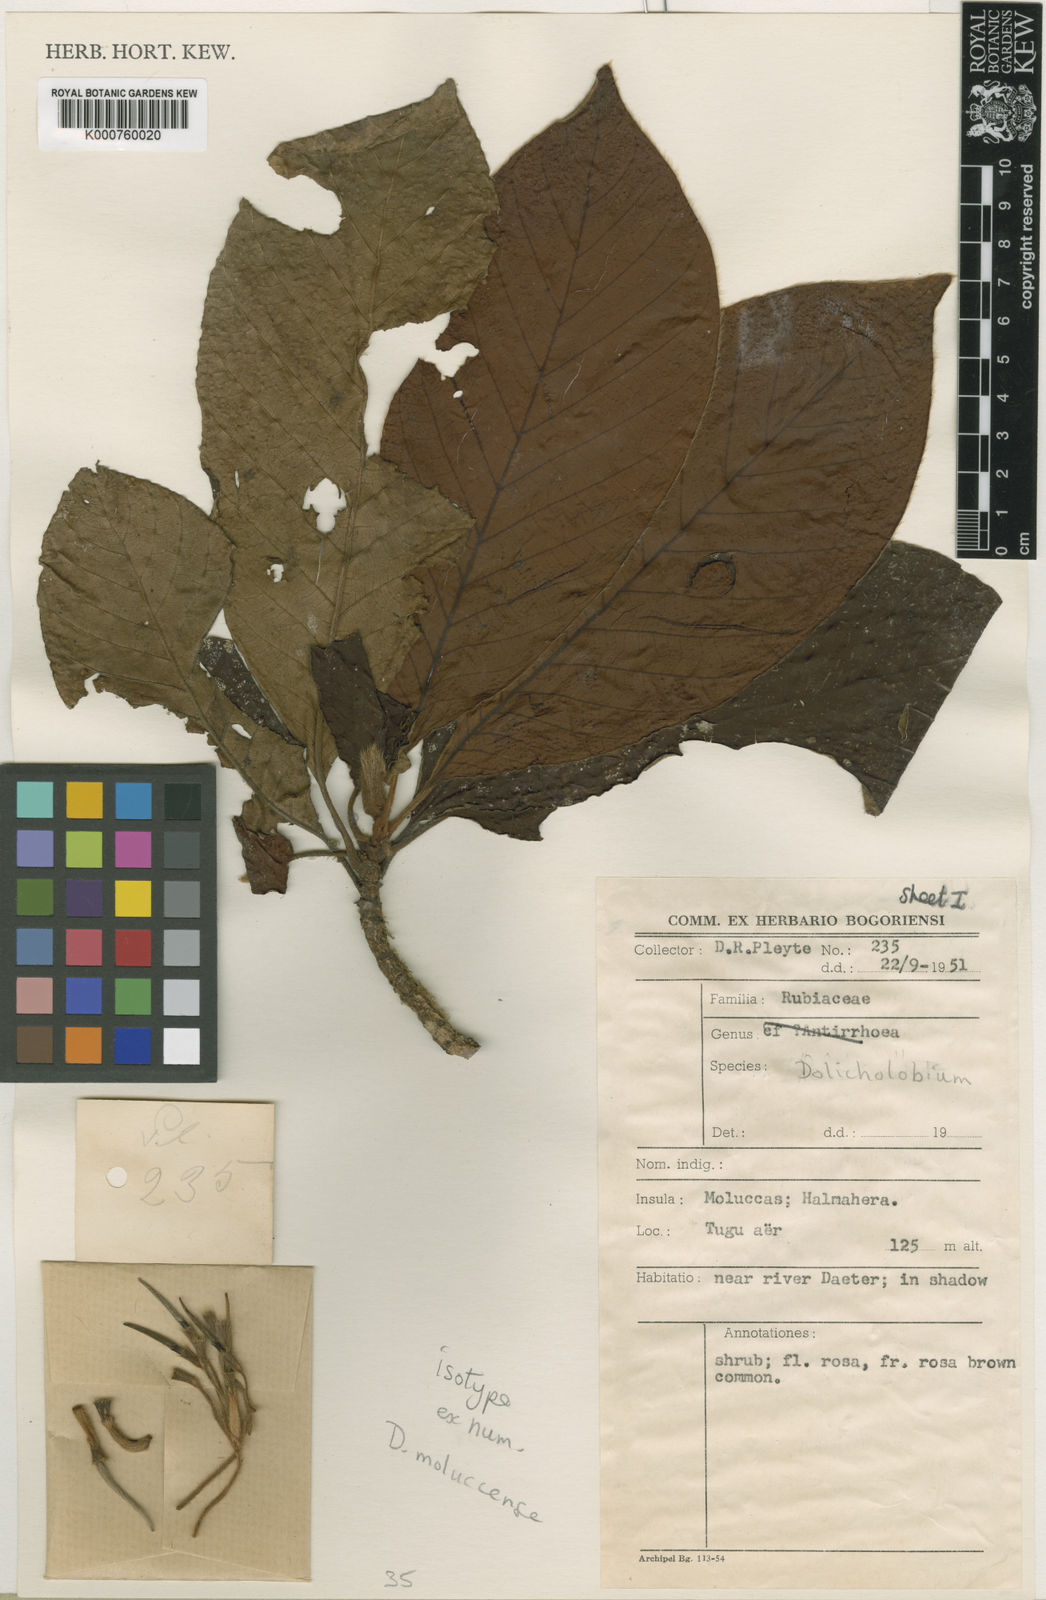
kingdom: Plantae
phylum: Tracheophyta
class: Magnoliopsida
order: Gentianales
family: Rubiaceae
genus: Dolicholobium
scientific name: Dolicholobium moluccense
